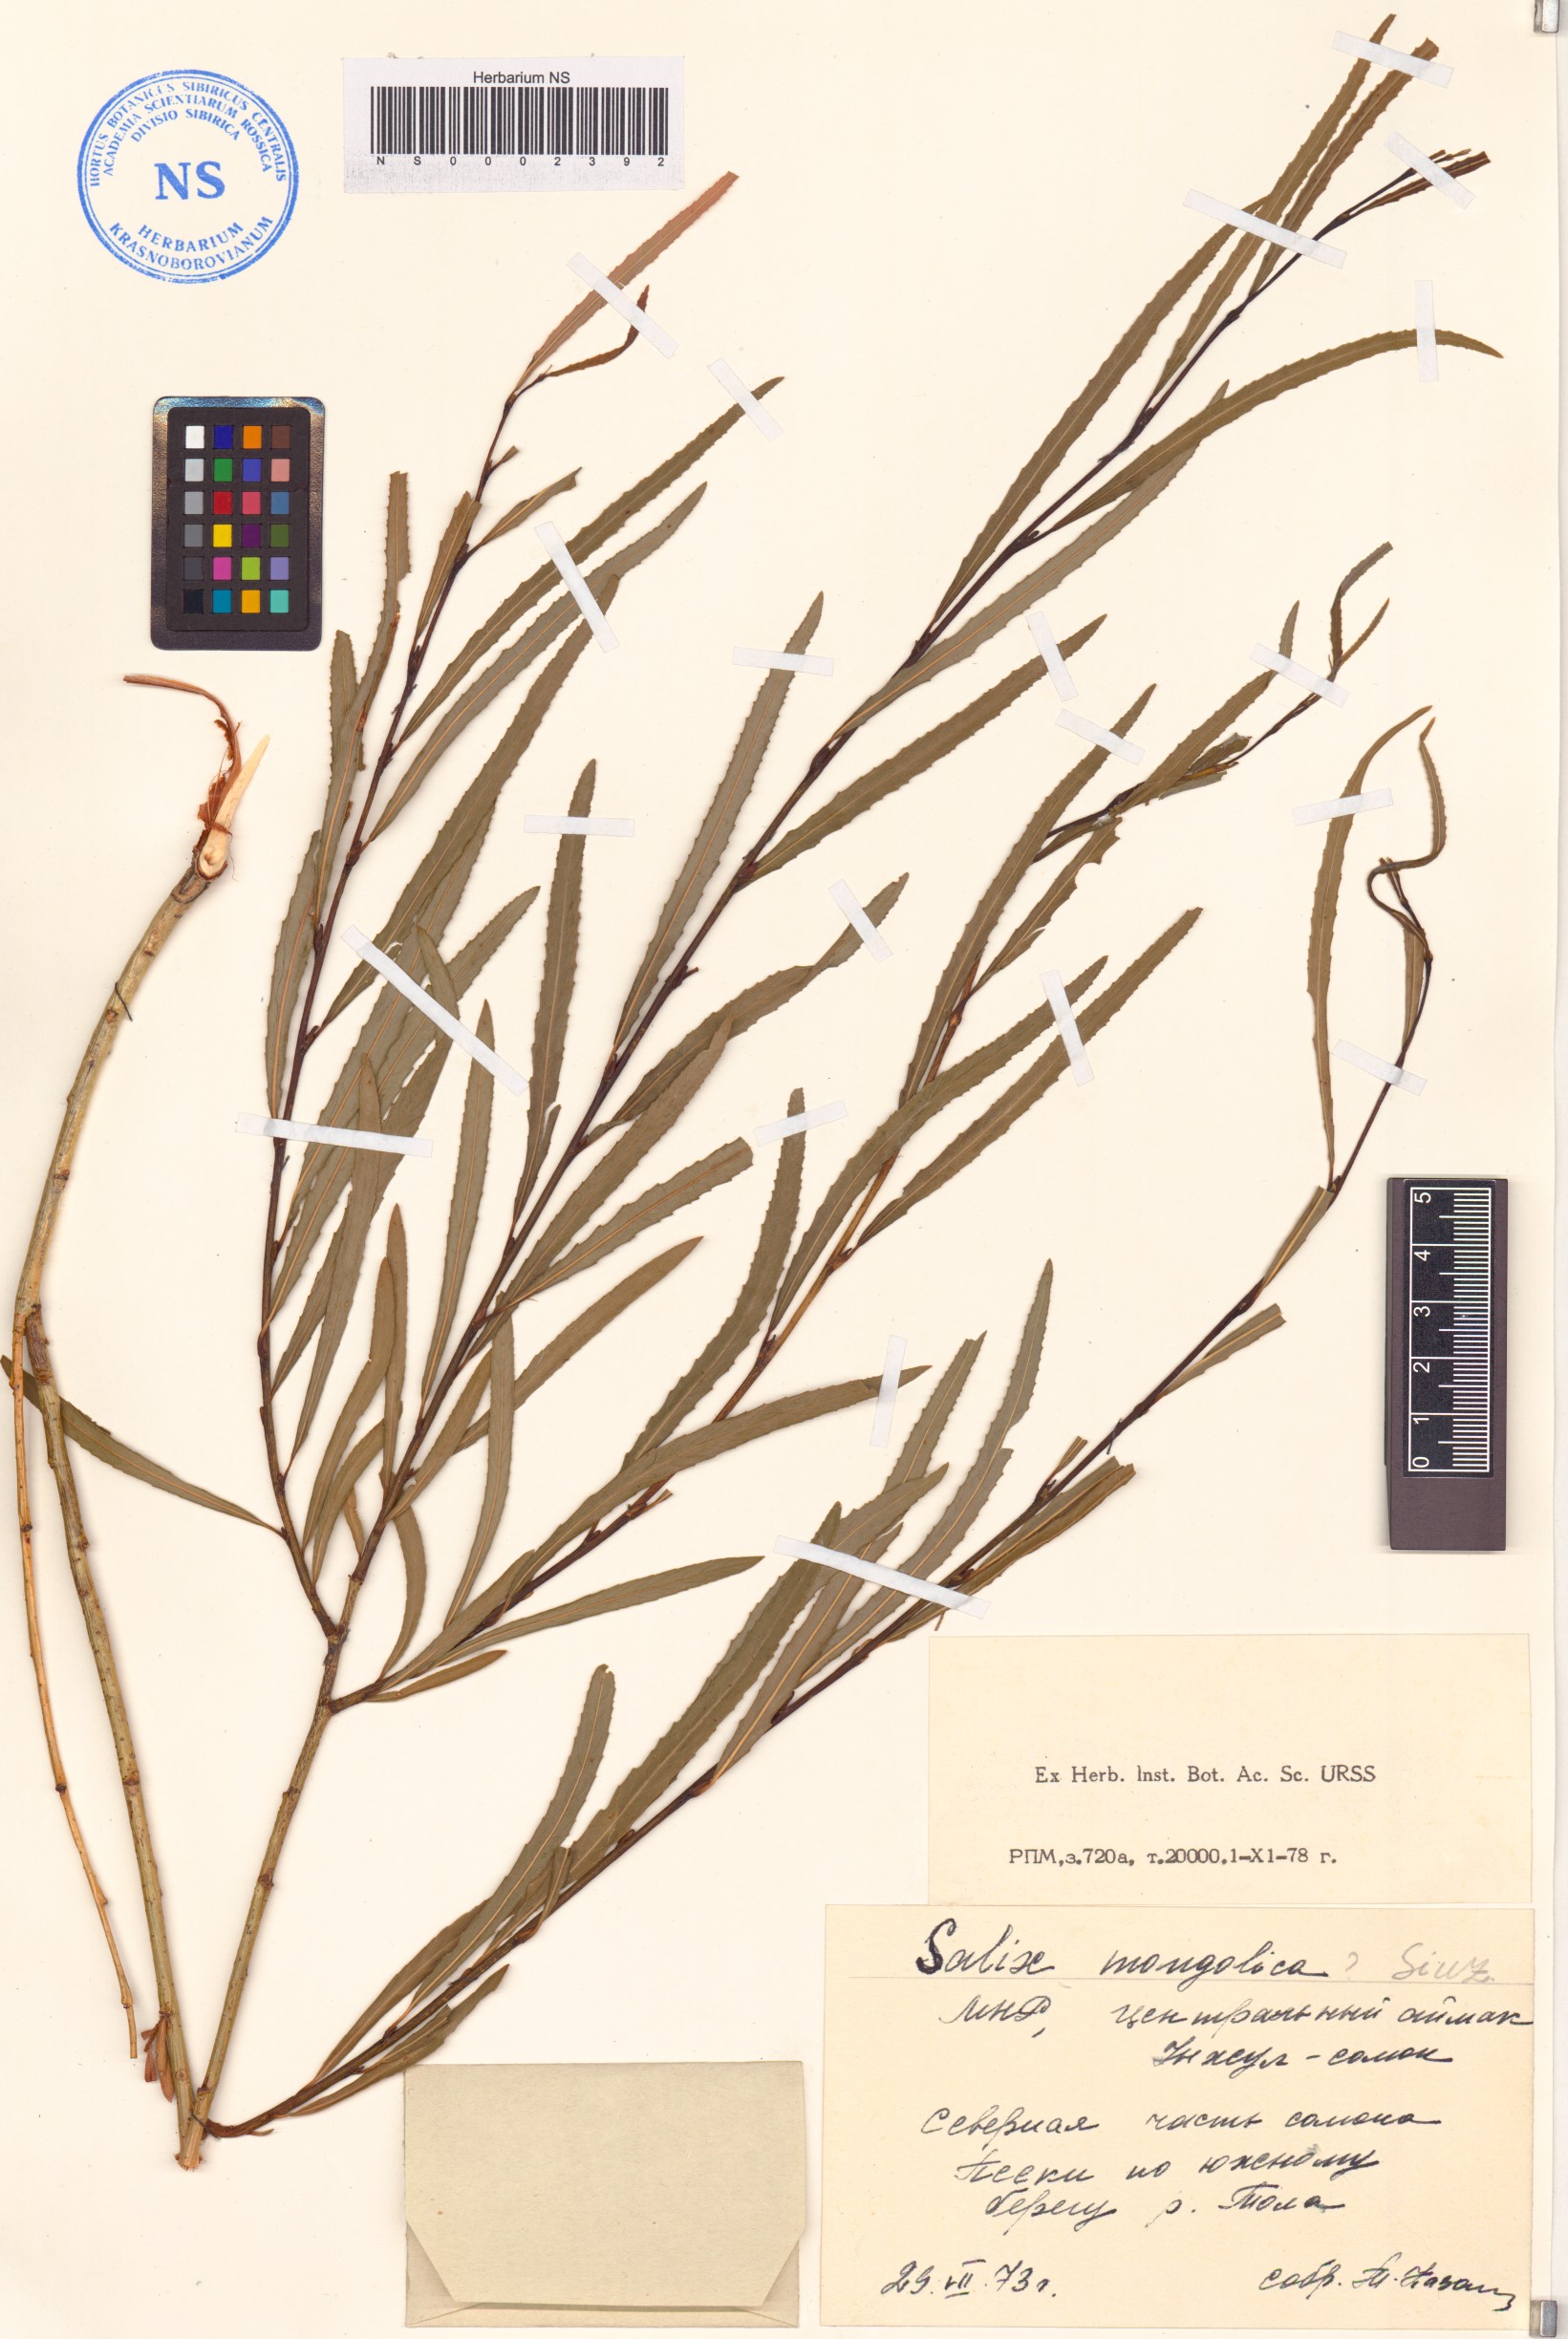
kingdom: Plantae
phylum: Tracheophyta
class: Magnoliopsida
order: Malpighiales
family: Salicaceae
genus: Salix
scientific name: Salix miyabeana
